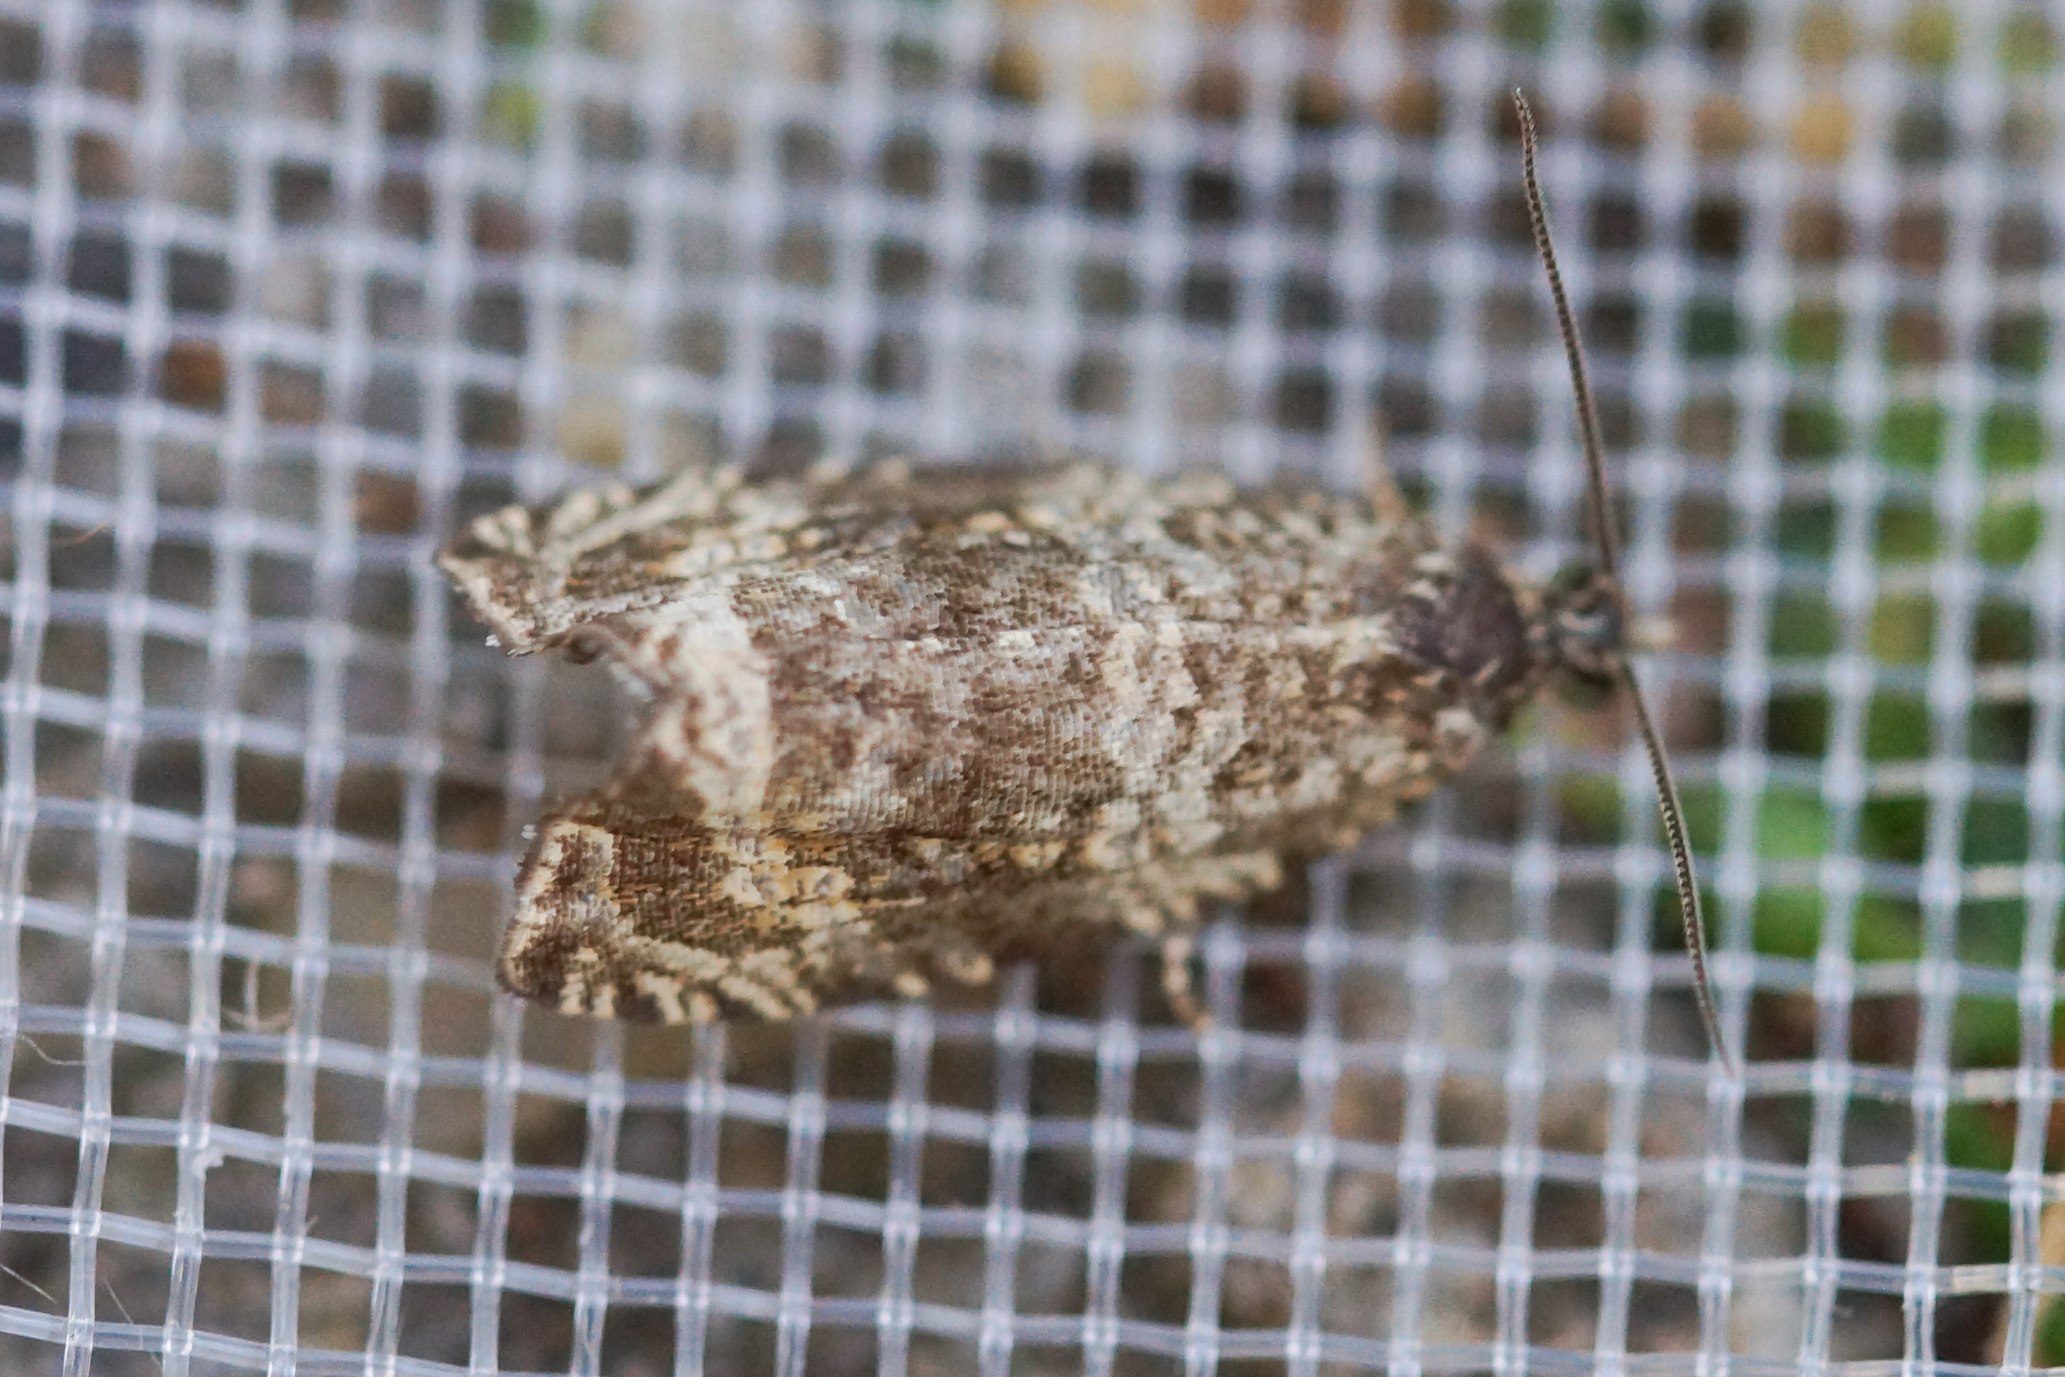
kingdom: Animalia
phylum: Arthropoda
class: Insecta
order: Lepidoptera
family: Tortricidae
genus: Syricoris
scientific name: Syricoris lacunana
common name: Rød jordbærvikler
